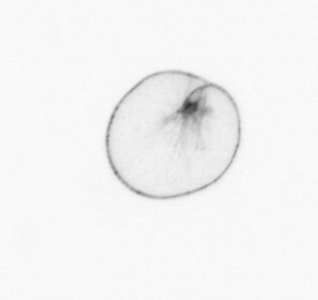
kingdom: Chromista
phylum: Myzozoa
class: Dinophyceae
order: Noctilucales
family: Noctilucaceae
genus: Noctiluca
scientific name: Noctiluca scintillans
